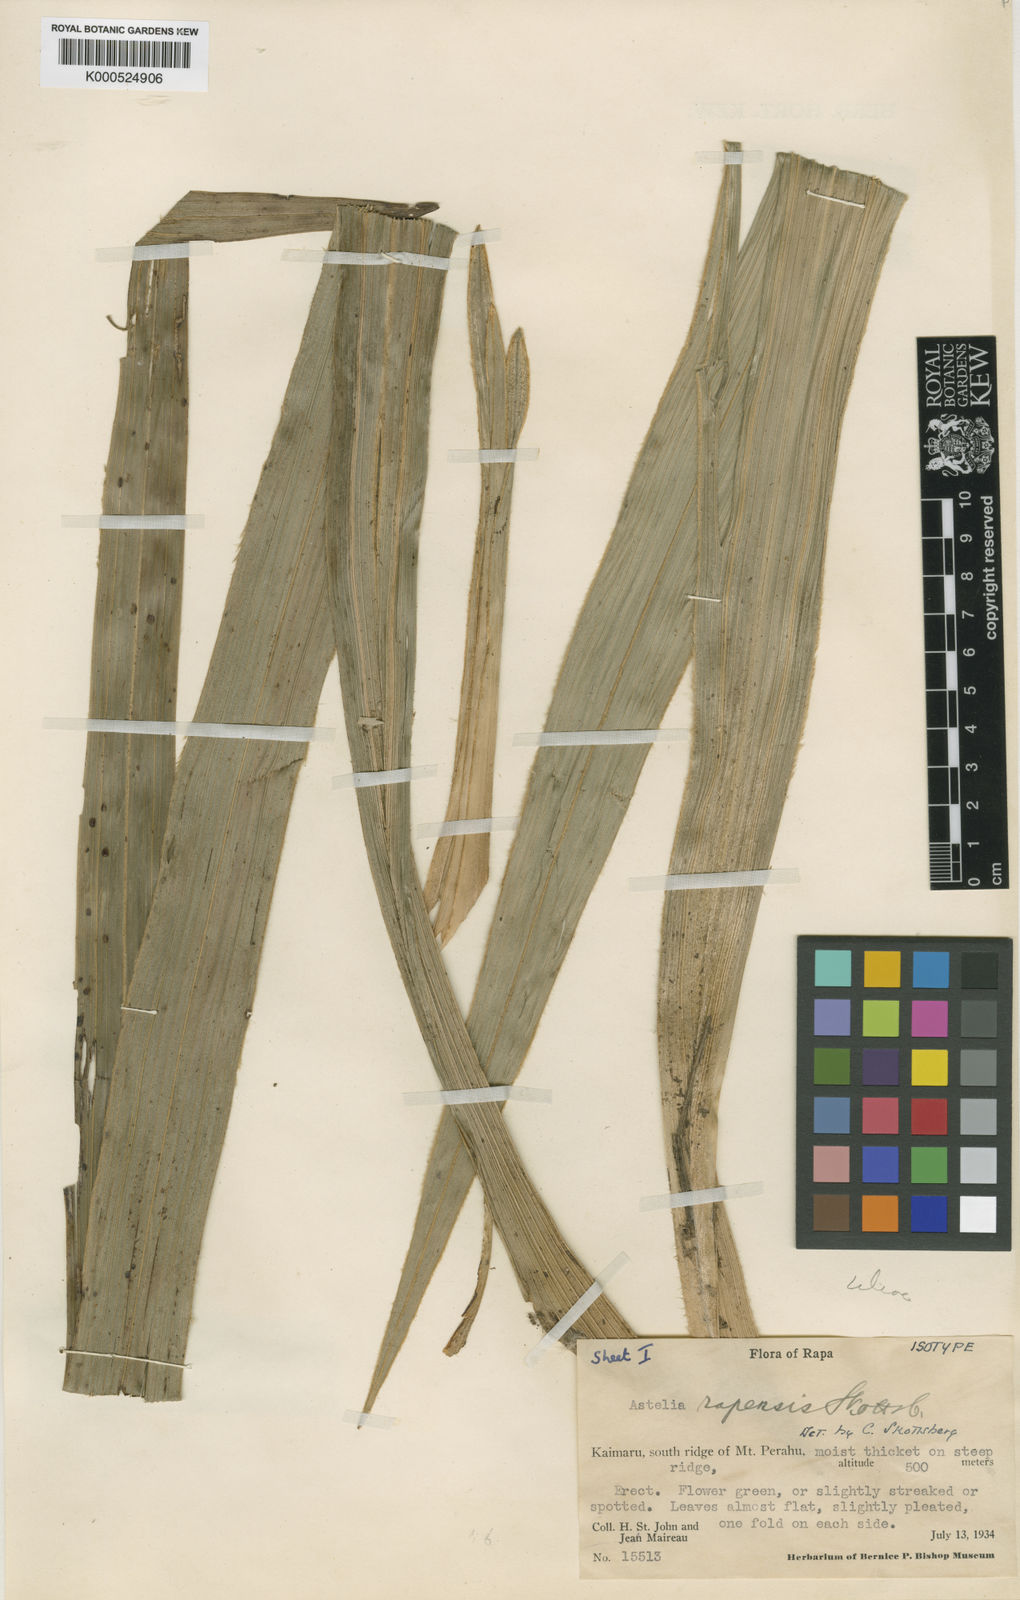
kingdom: Plantae
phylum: Tracheophyta
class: Liliopsida
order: Asparagales
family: Asteliaceae
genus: Astelia
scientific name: Astelia rapensis
